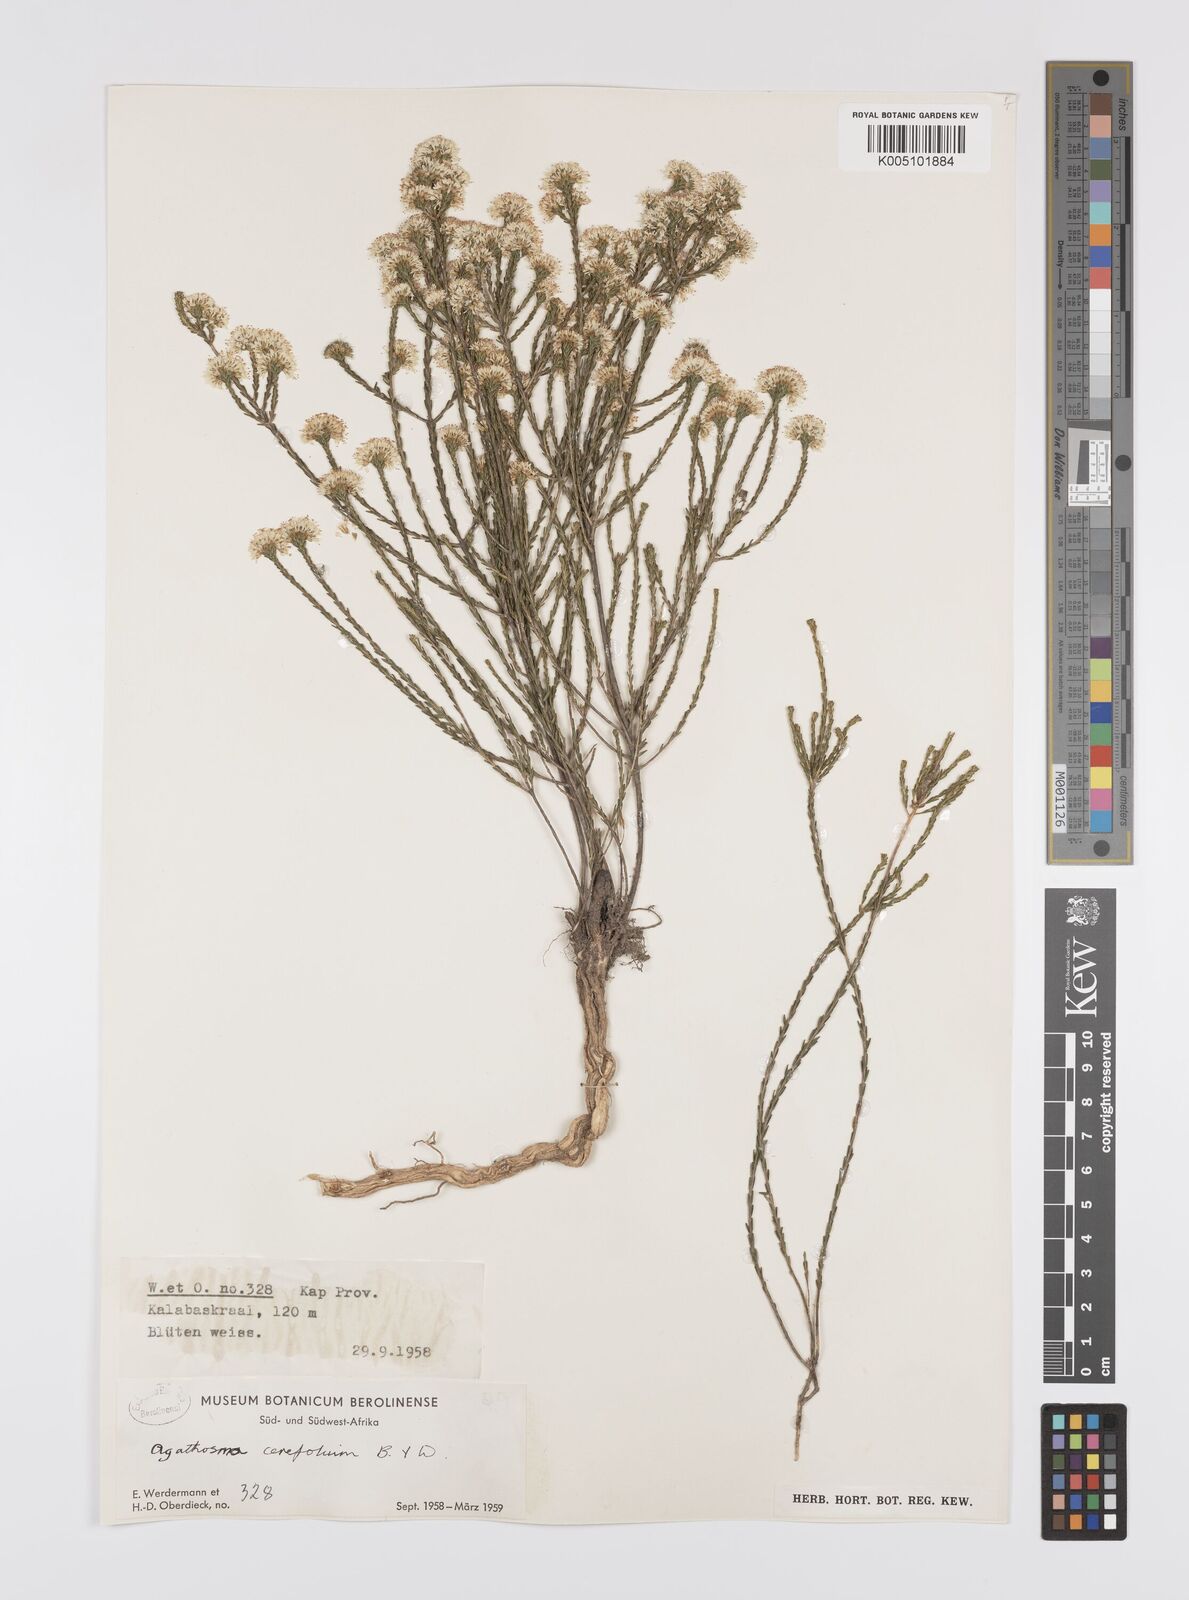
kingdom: Plantae
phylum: Tracheophyta
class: Magnoliopsida
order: Sapindales
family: Rutaceae
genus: Agathosma
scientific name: Agathosma cerefolia
